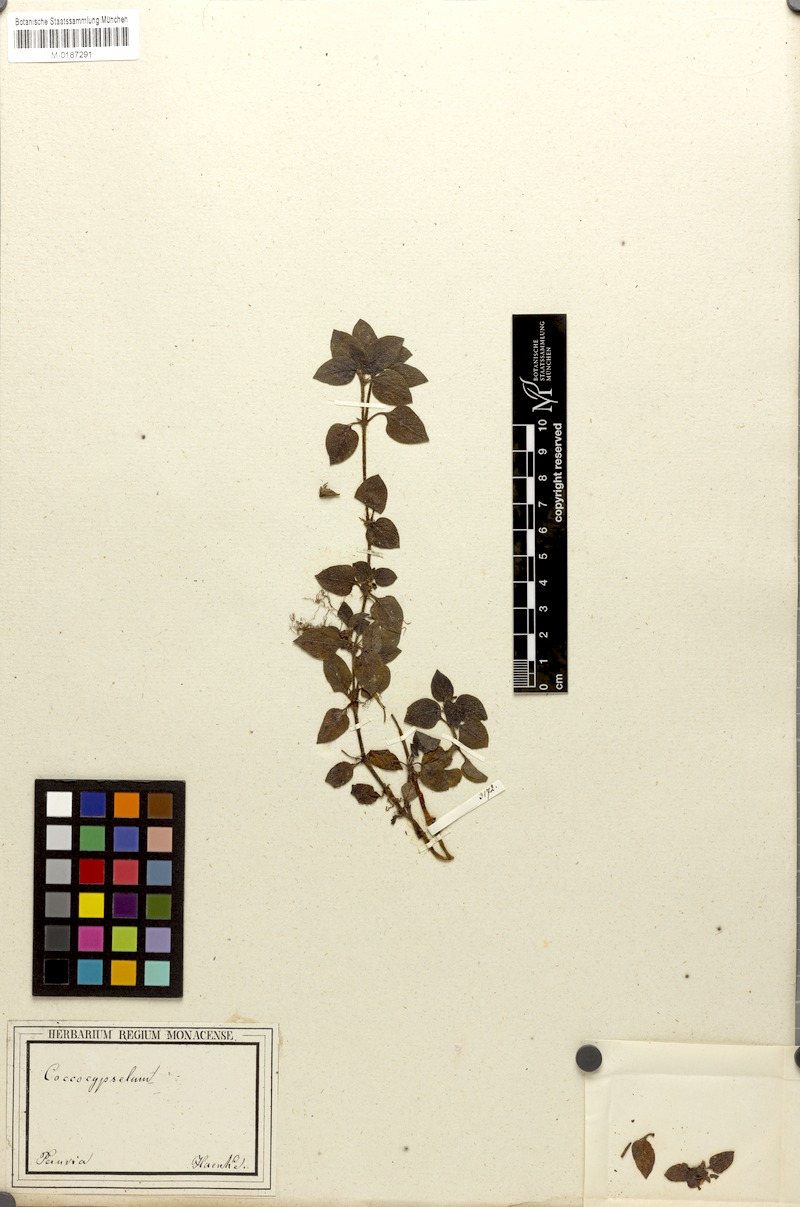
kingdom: Plantae
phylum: Tracheophyta
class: Magnoliopsida
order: Gentianales
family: Rubiaceae
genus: Coccocypselum
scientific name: Coccocypselum
